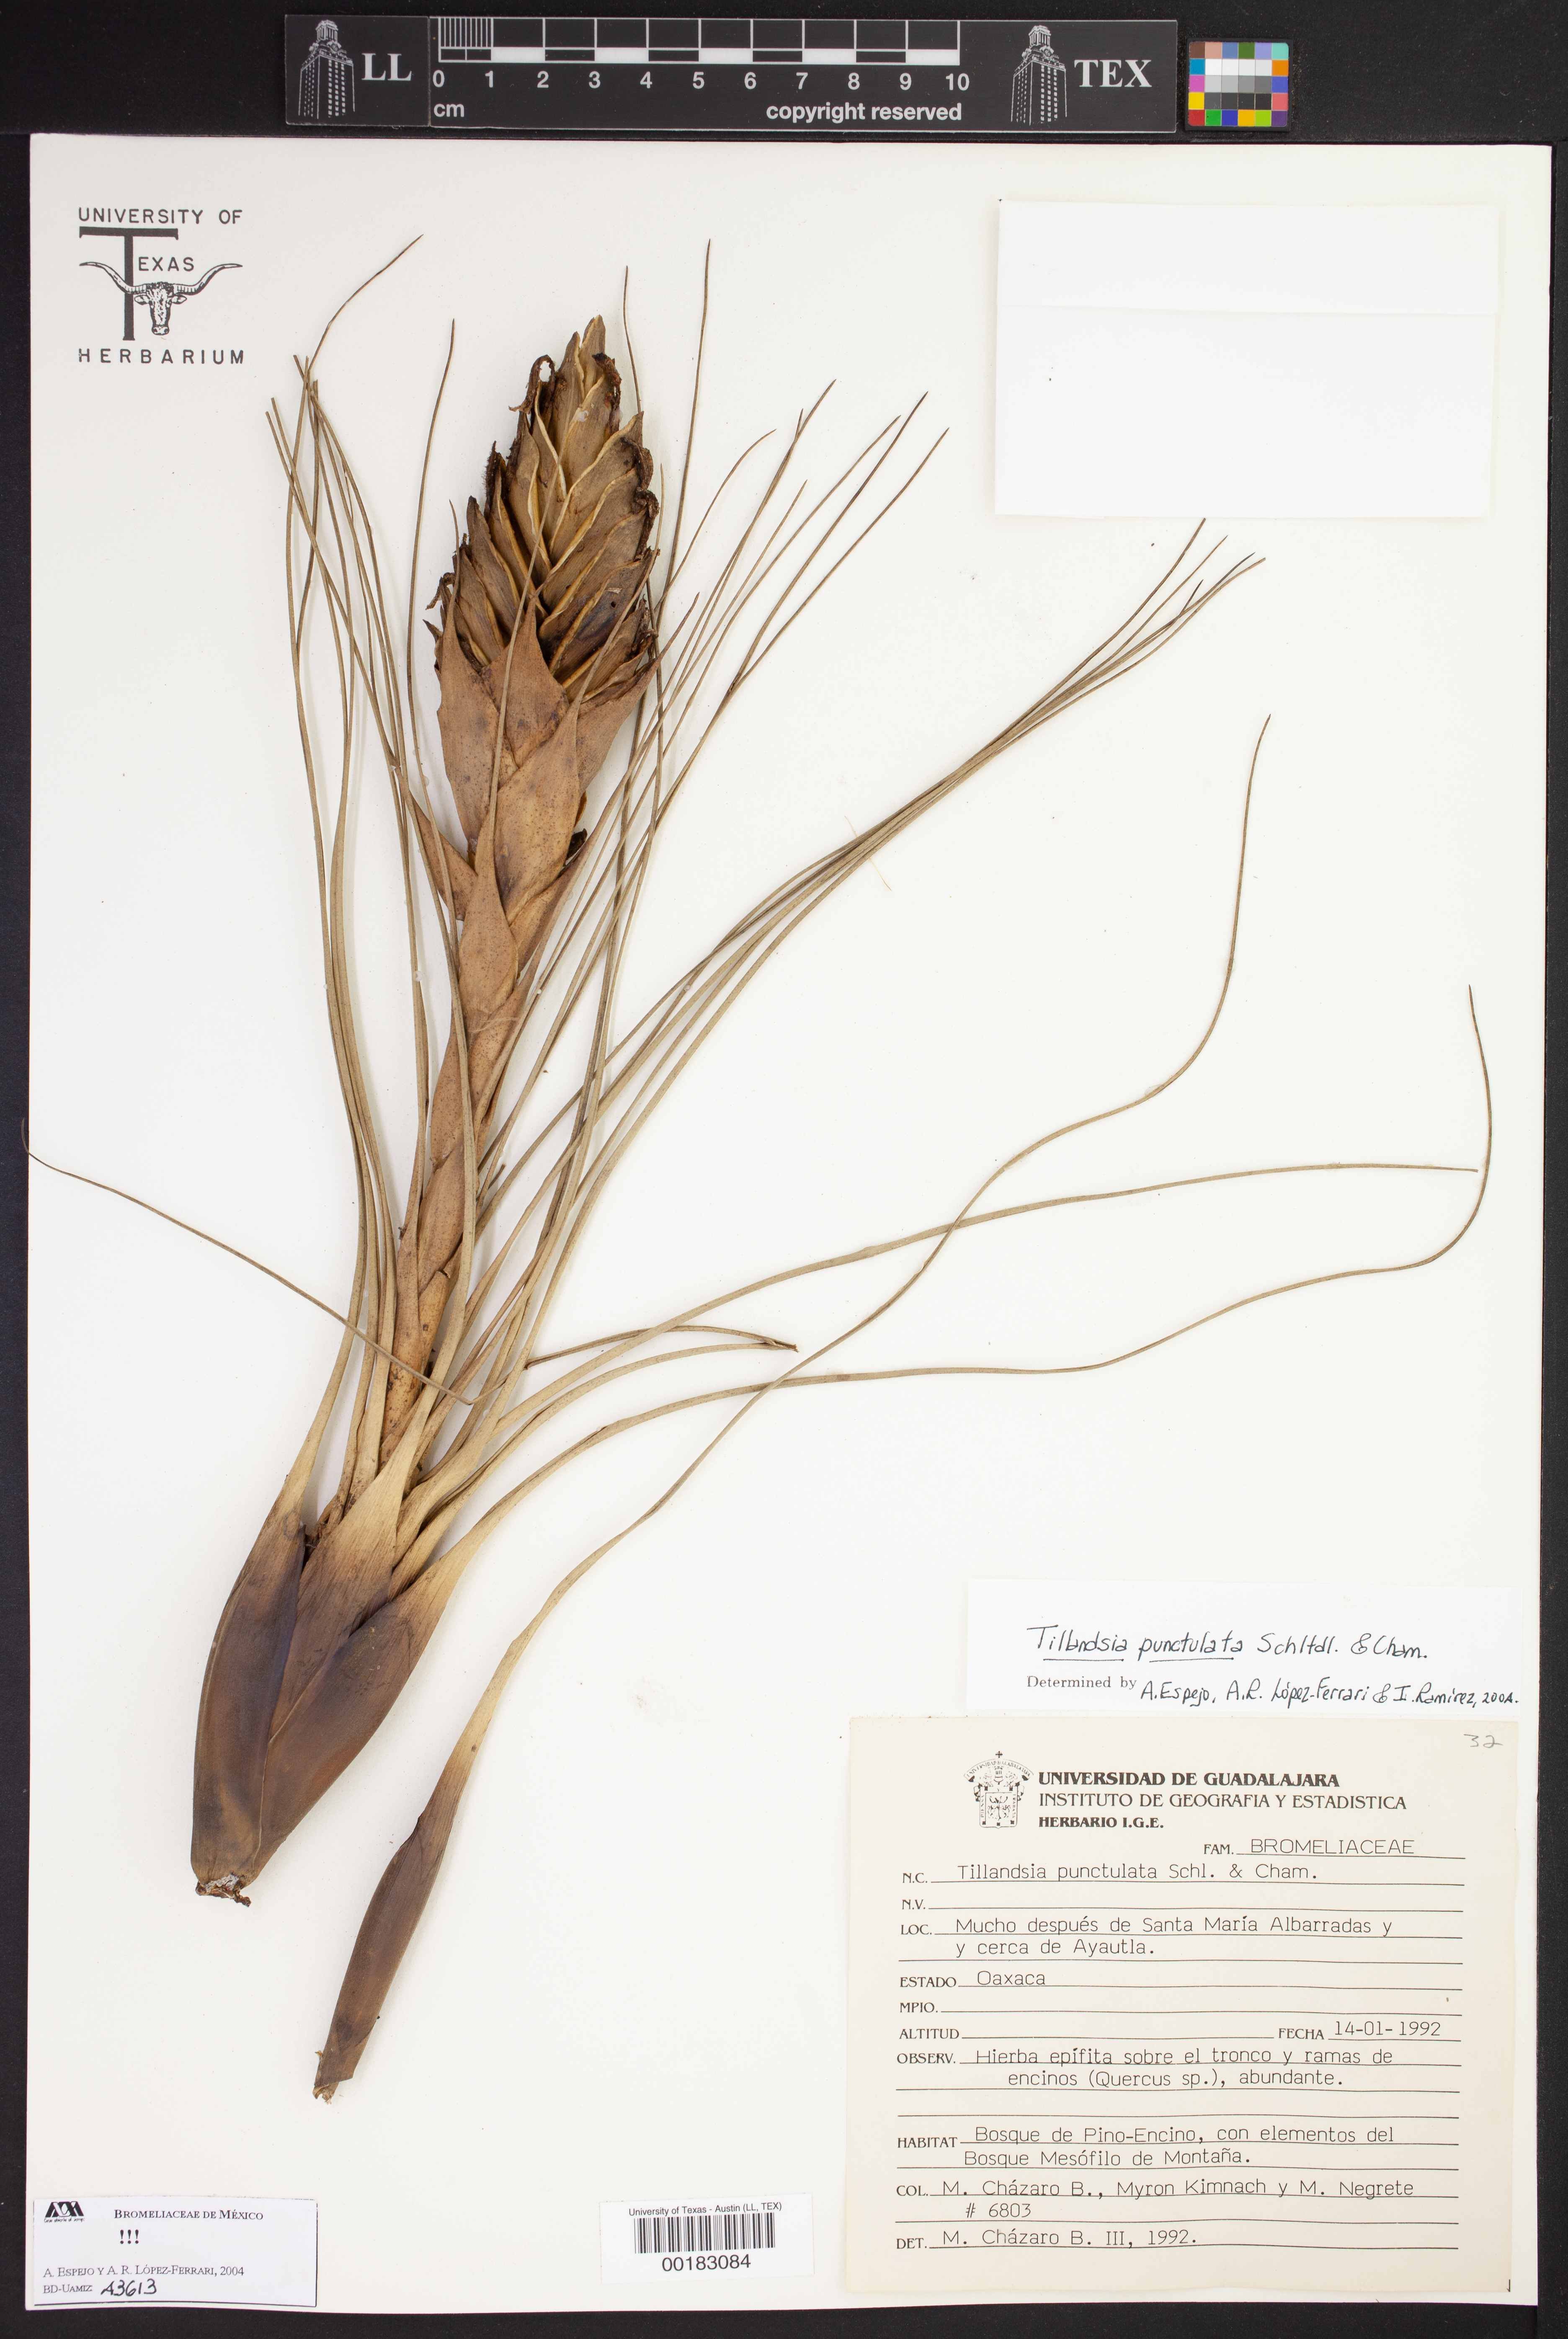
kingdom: Plantae
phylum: Tracheophyta
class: Liliopsida
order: Poales
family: Bromeliaceae
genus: Tillandsia
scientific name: Tillandsia punctulata
